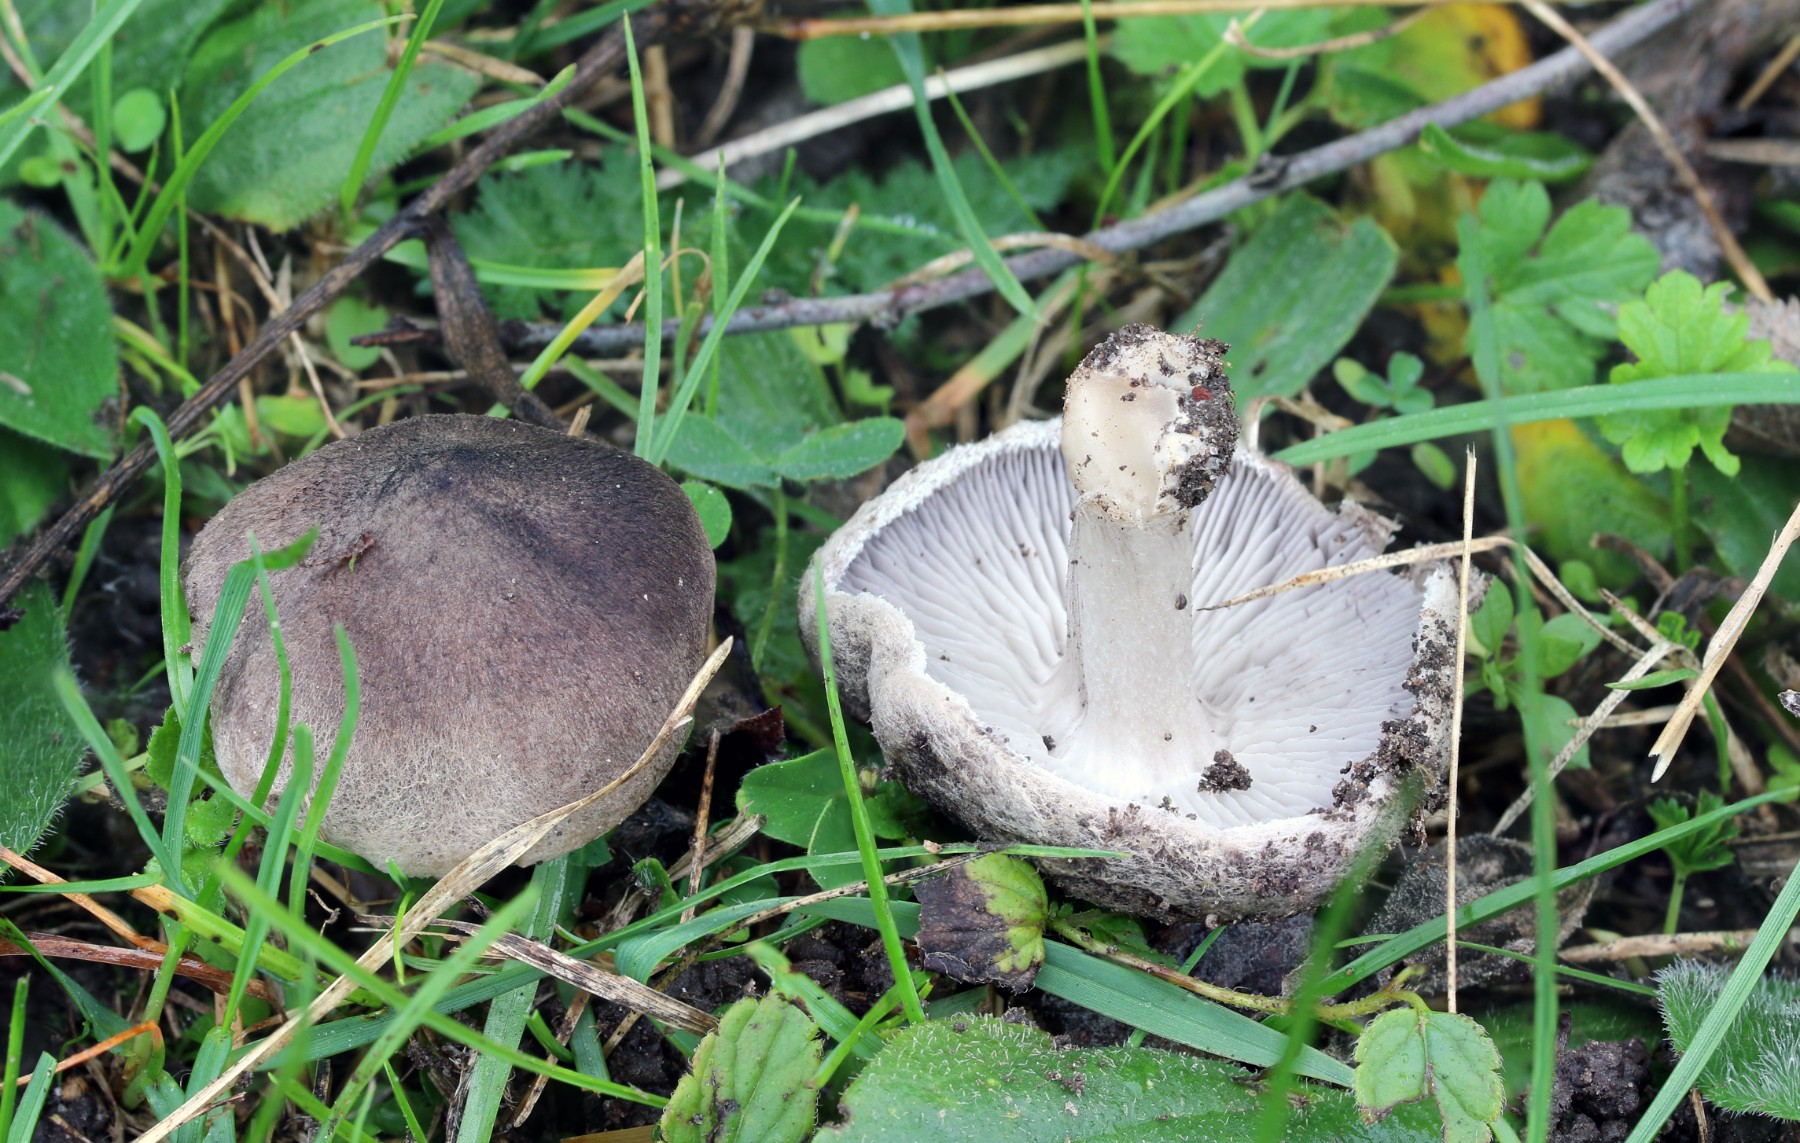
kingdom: Fungi
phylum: Basidiomycota
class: Agaricomycetes
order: Agaricales
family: Tricholomataceae
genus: Tricholoma
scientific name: Tricholoma terreum
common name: jordfarvet ridderhat
